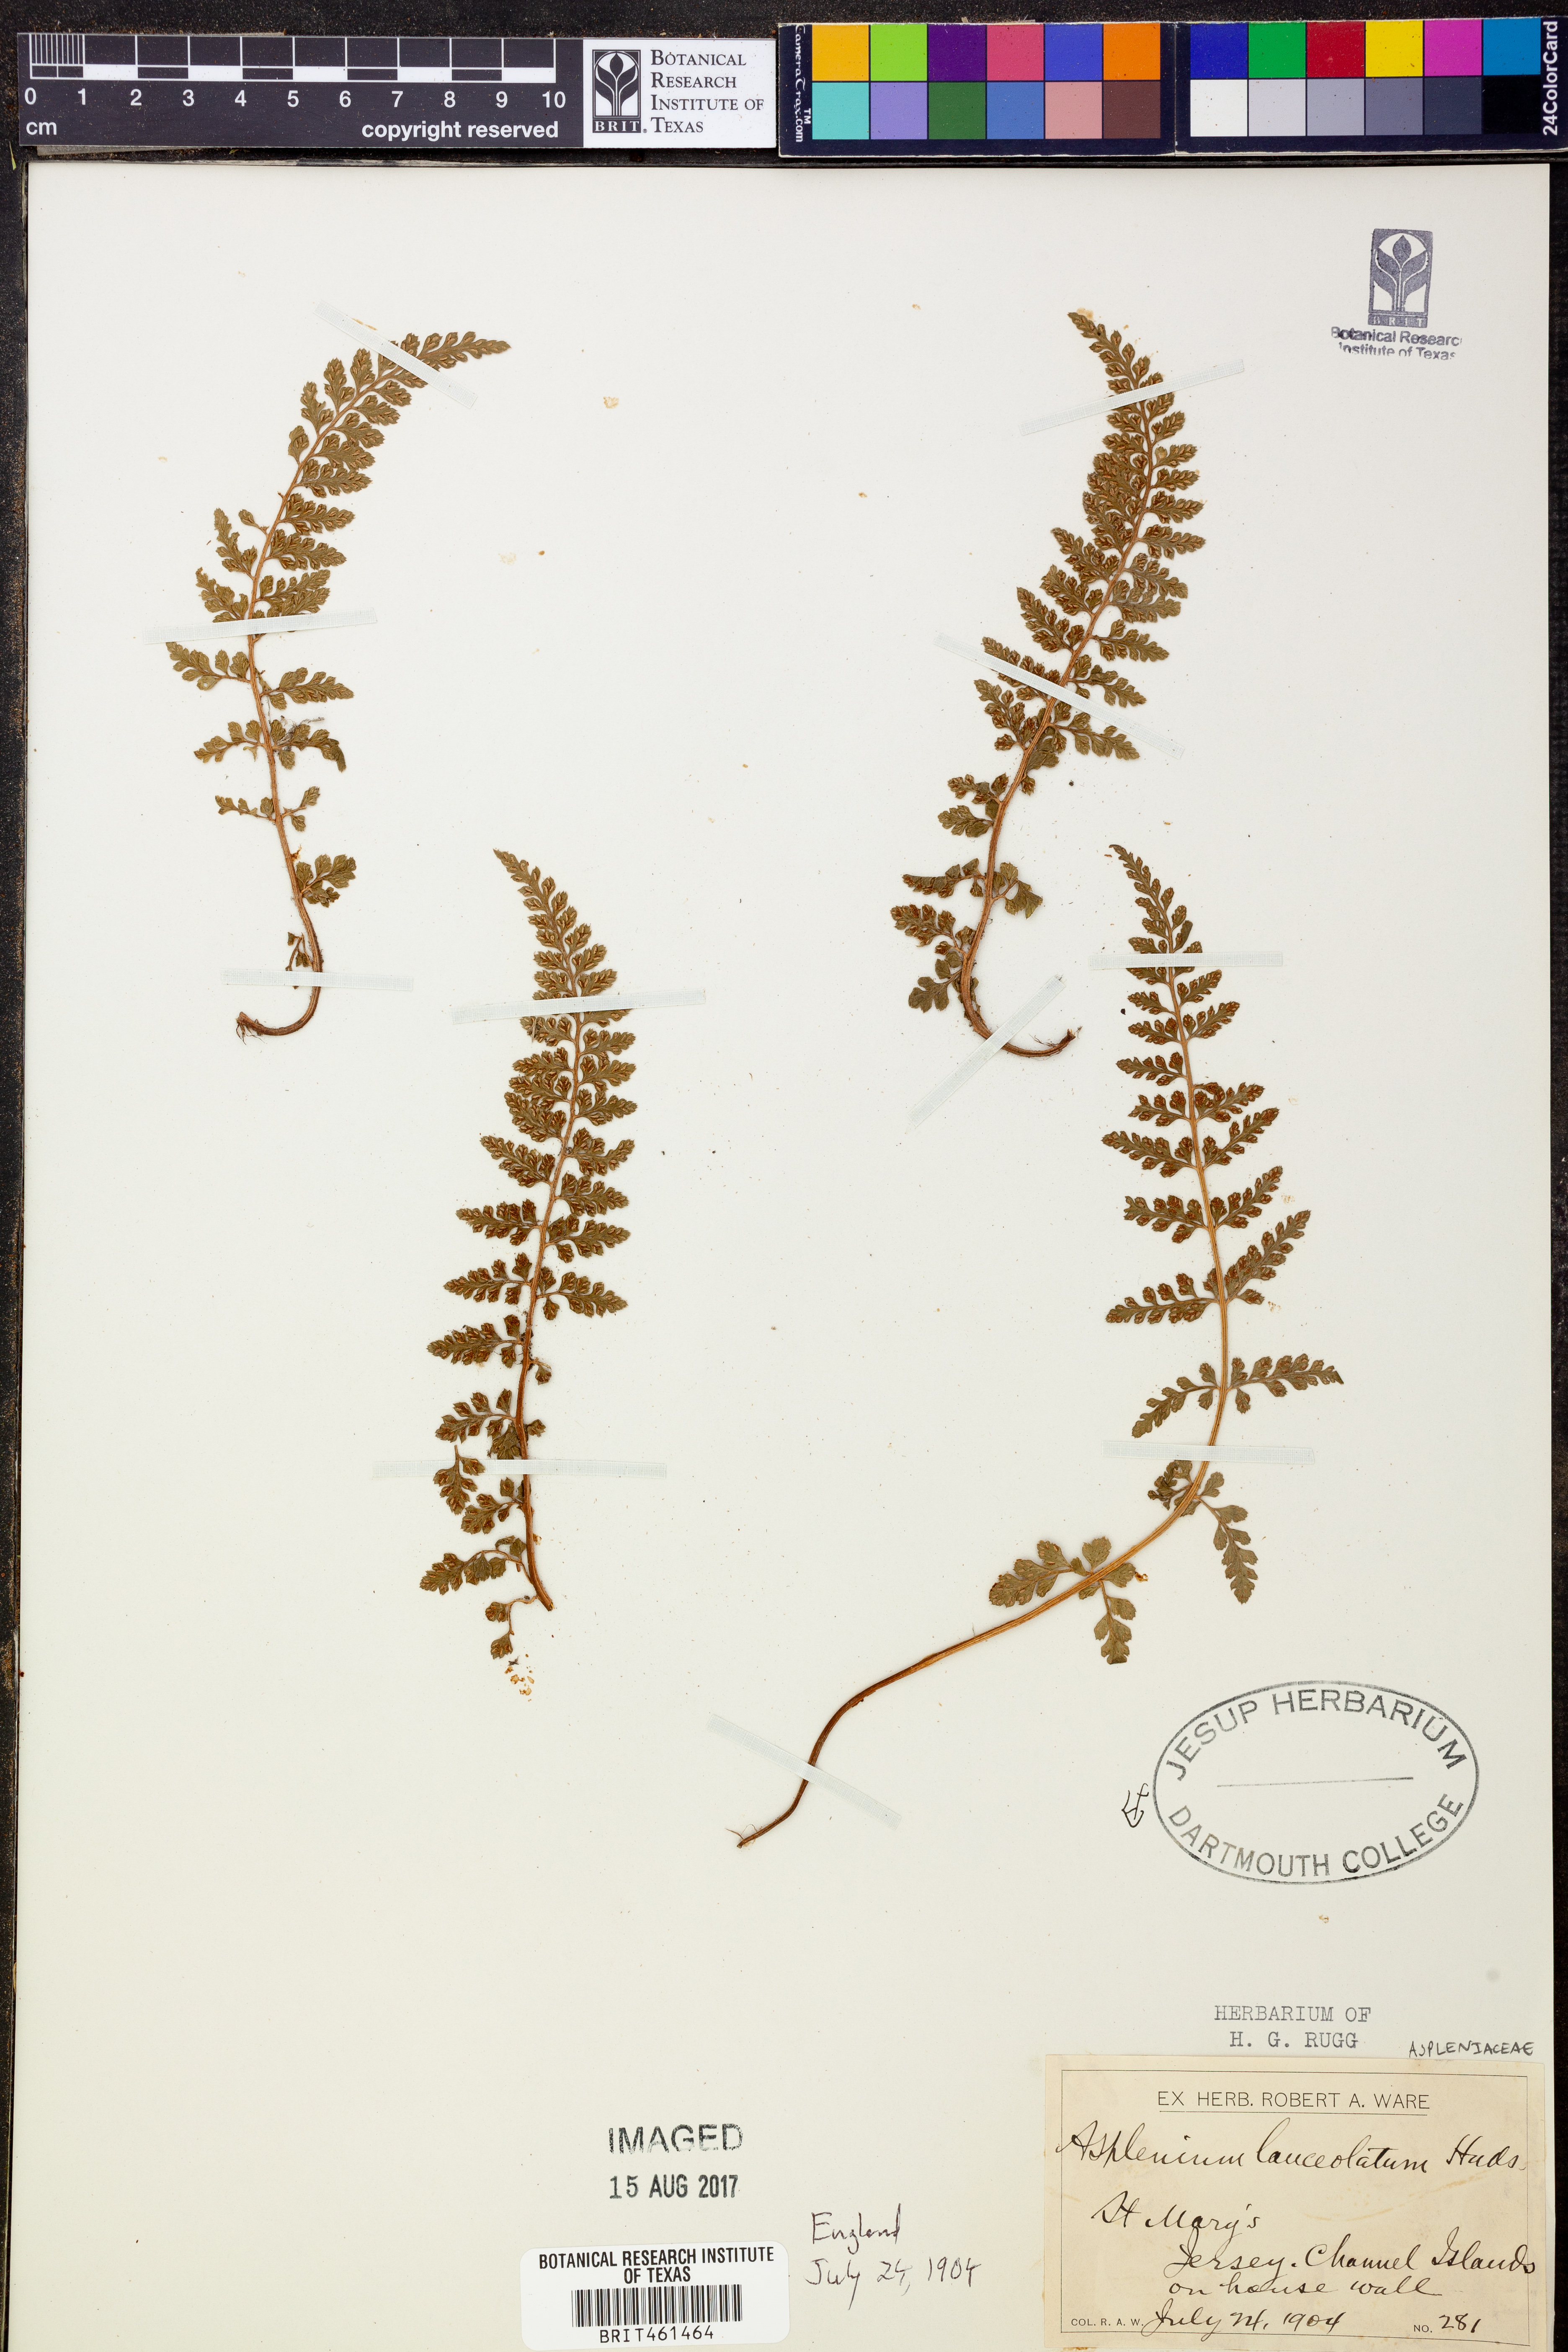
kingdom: Plantae
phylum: Tracheophyta
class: Polypodiopsida
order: Polypodiales
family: Aspleniaceae
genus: Asplenium
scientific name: Asplenium
